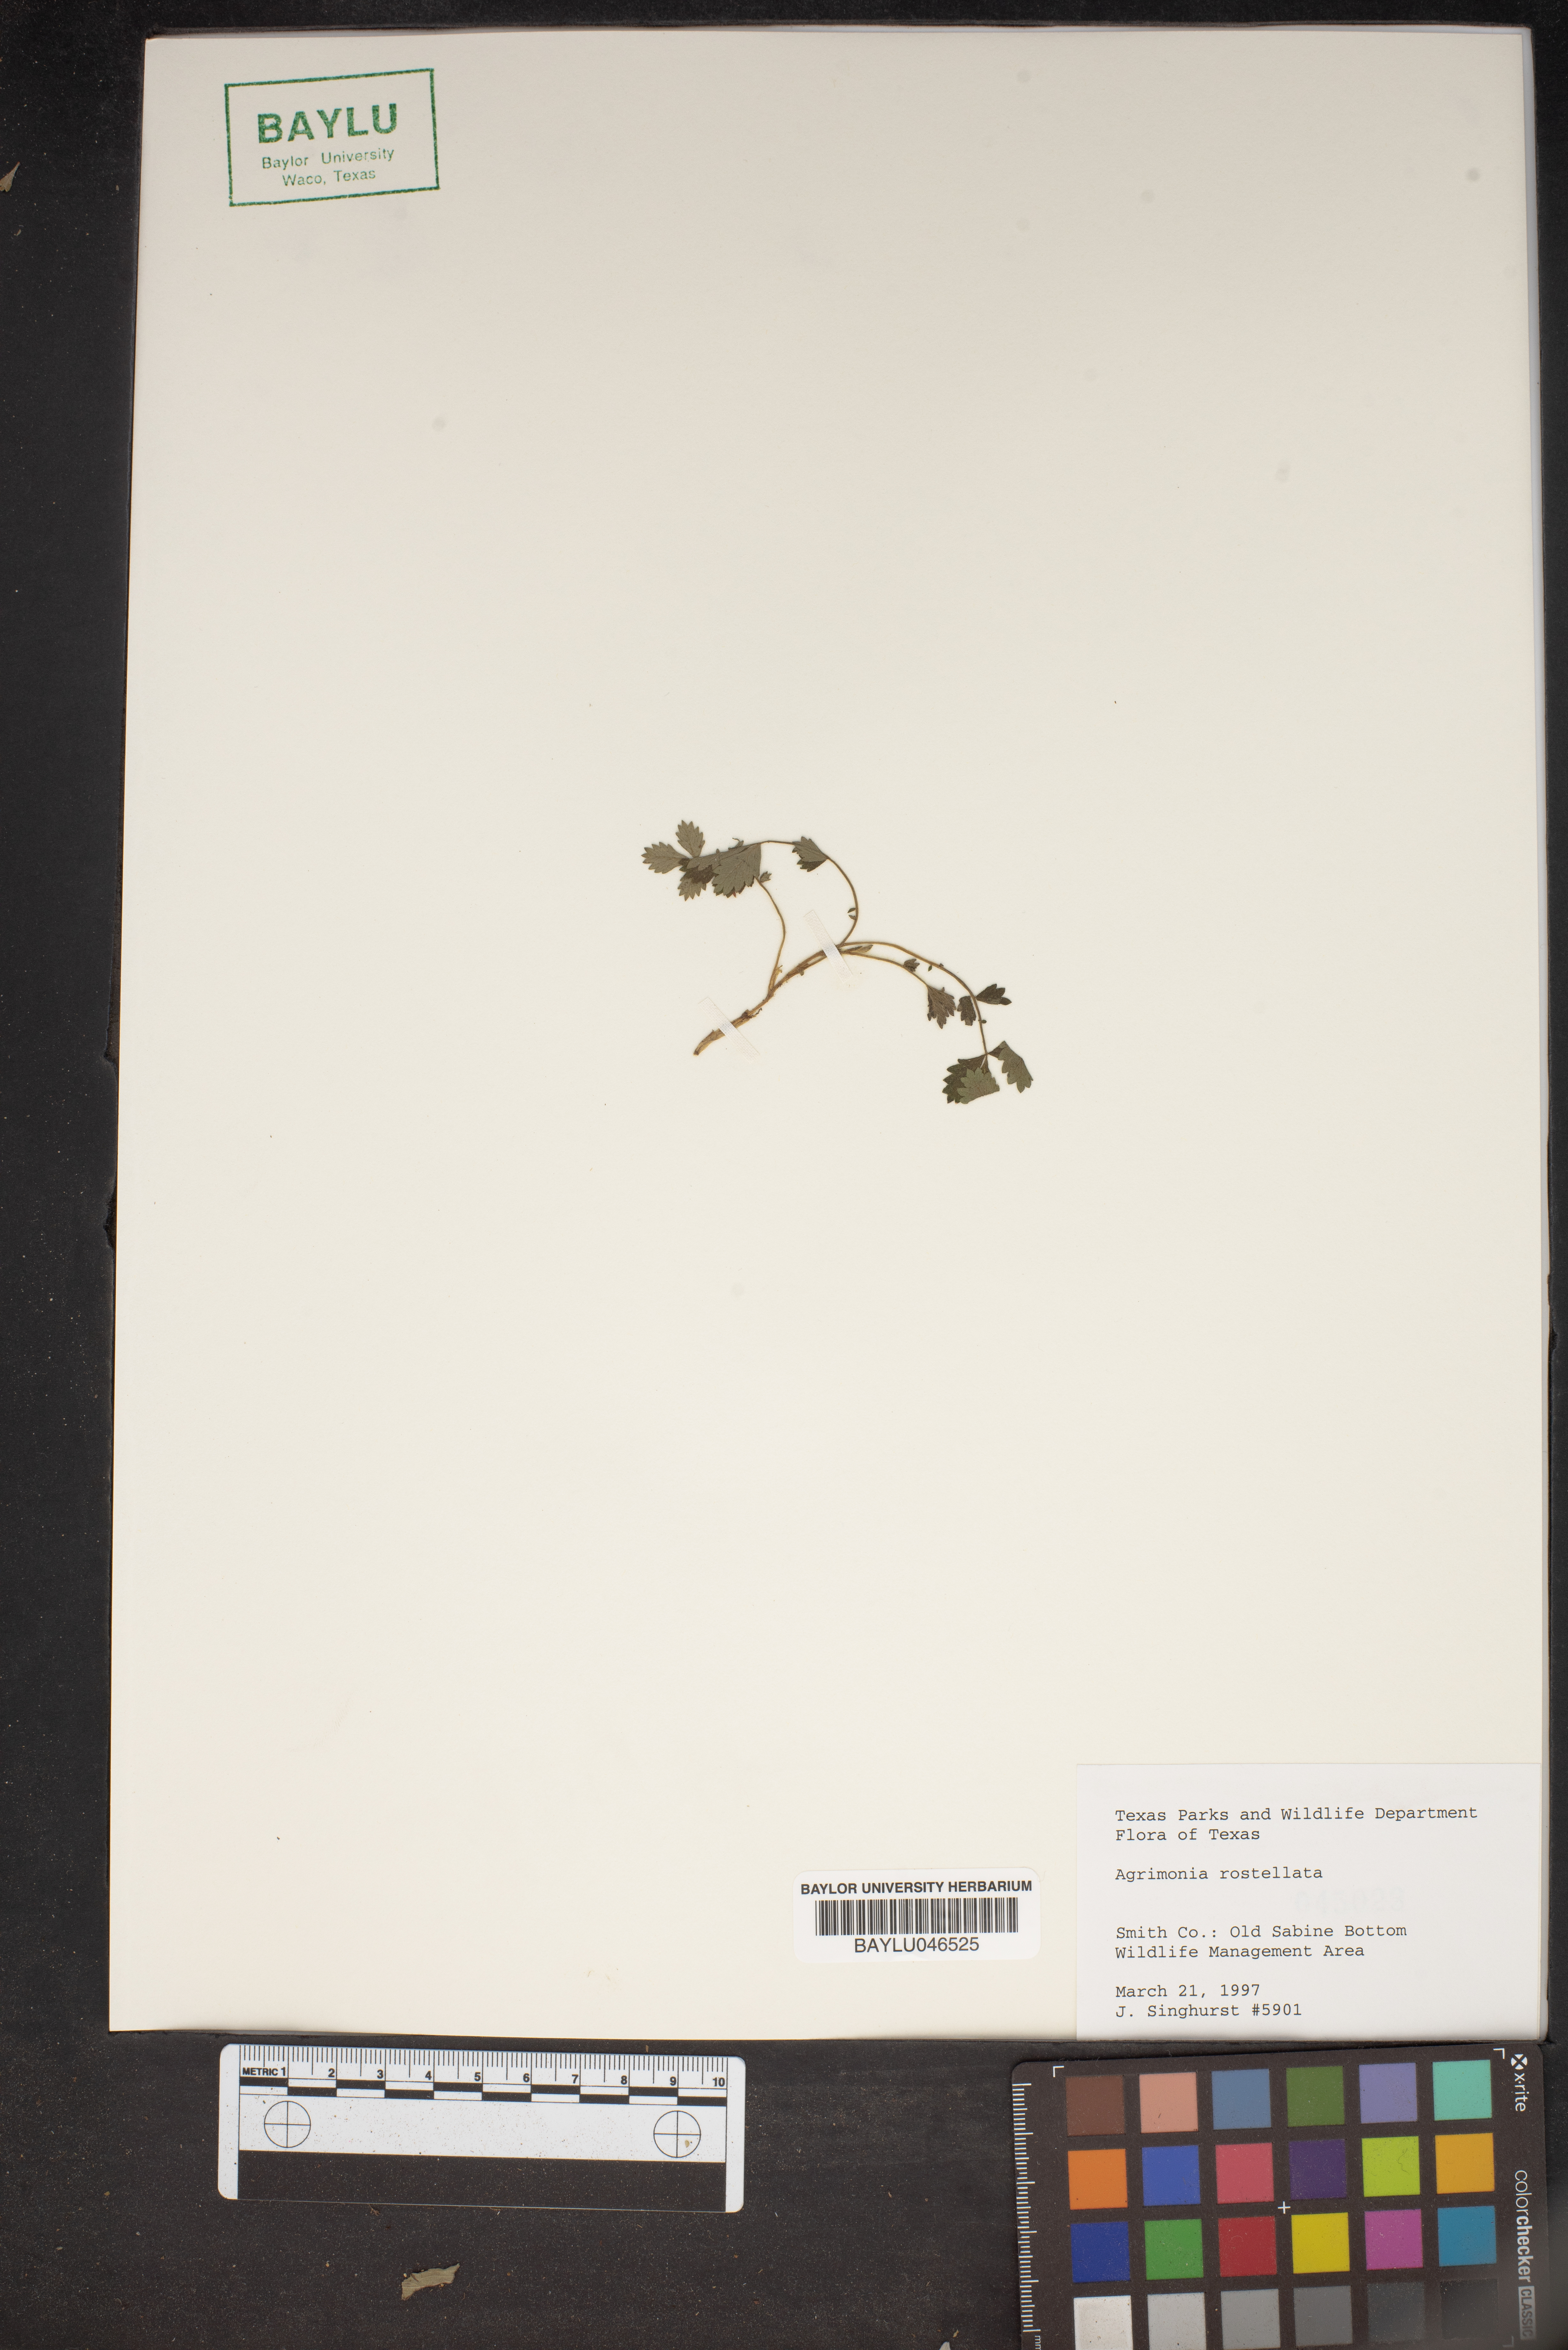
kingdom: Plantae
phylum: Tracheophyta
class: Magnoliopsida
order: Rosales
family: Rosaceae
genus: Agrimonia
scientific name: Agrimonia rostellata
